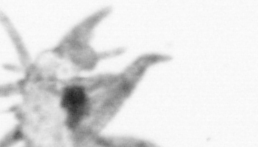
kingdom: Animalia
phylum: Annelida
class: Polychaeta
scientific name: Polychaeta
